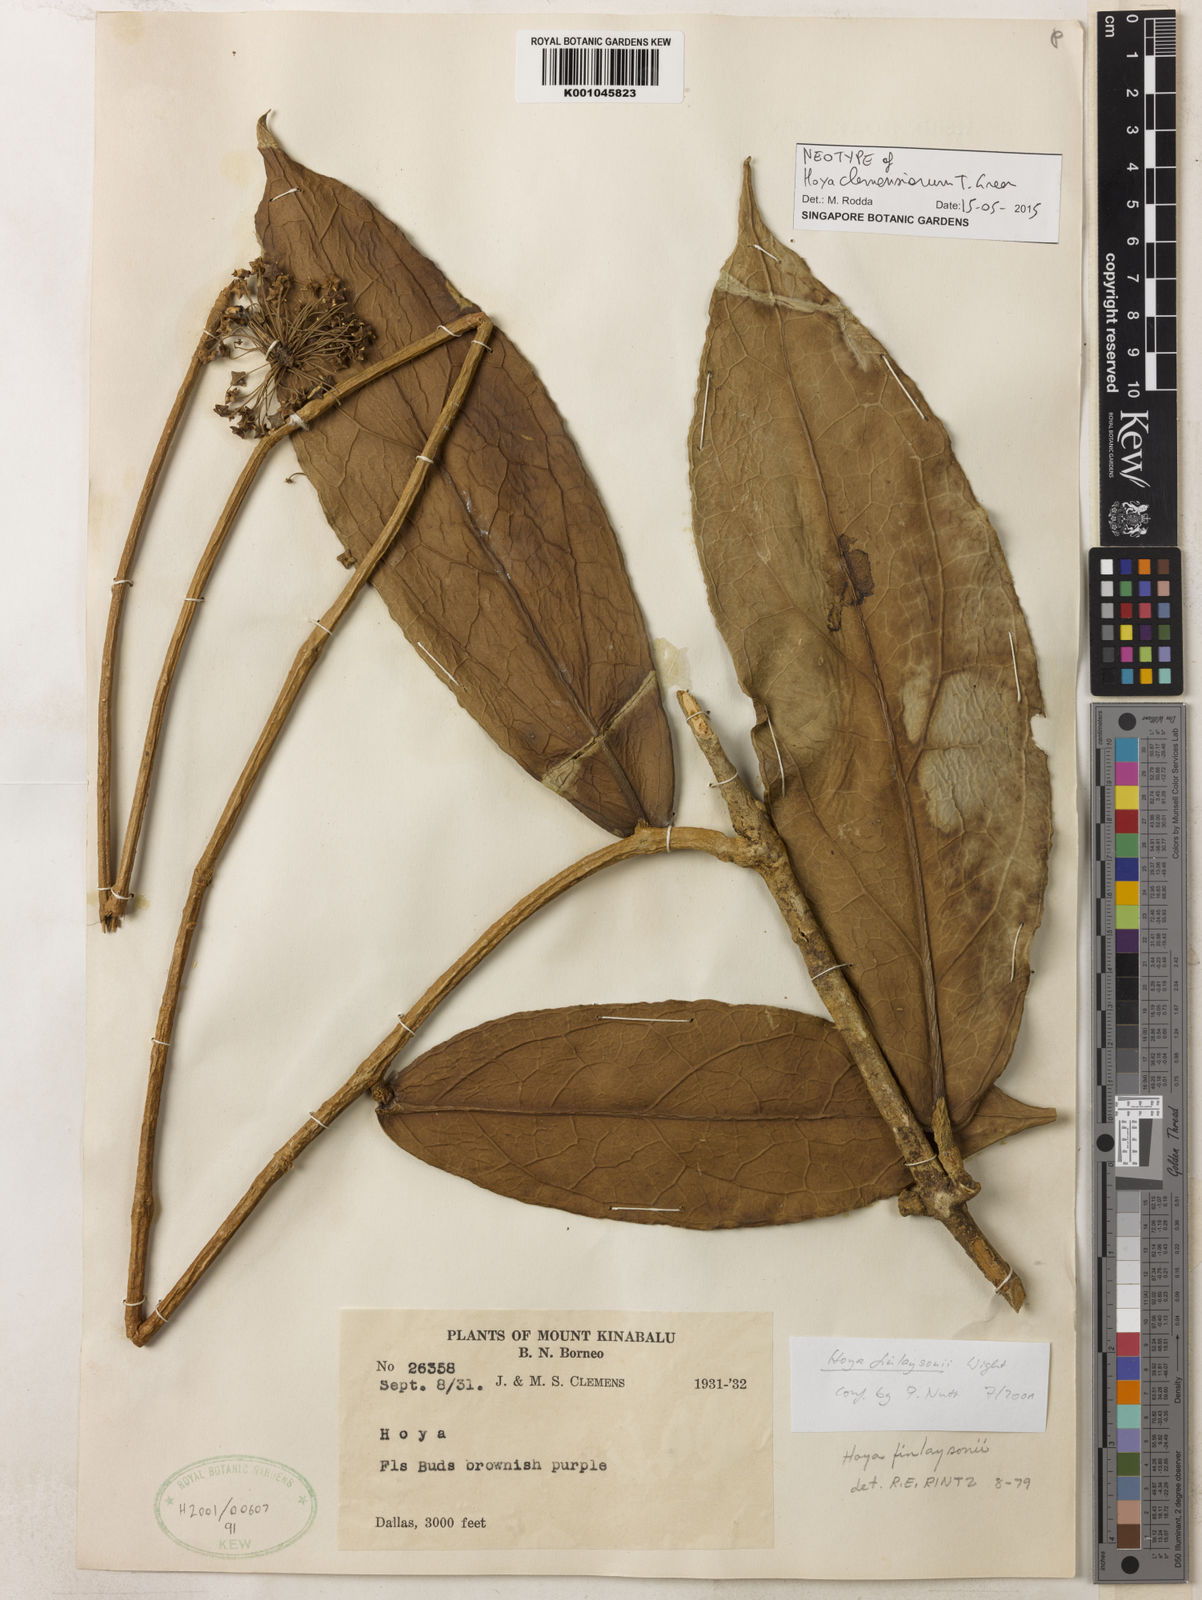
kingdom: Plantae
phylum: Tracheophyta
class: Magnoliopsida
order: Gentianales
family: Apocynaceae
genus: Hoya
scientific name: Hoya clemensiorum
